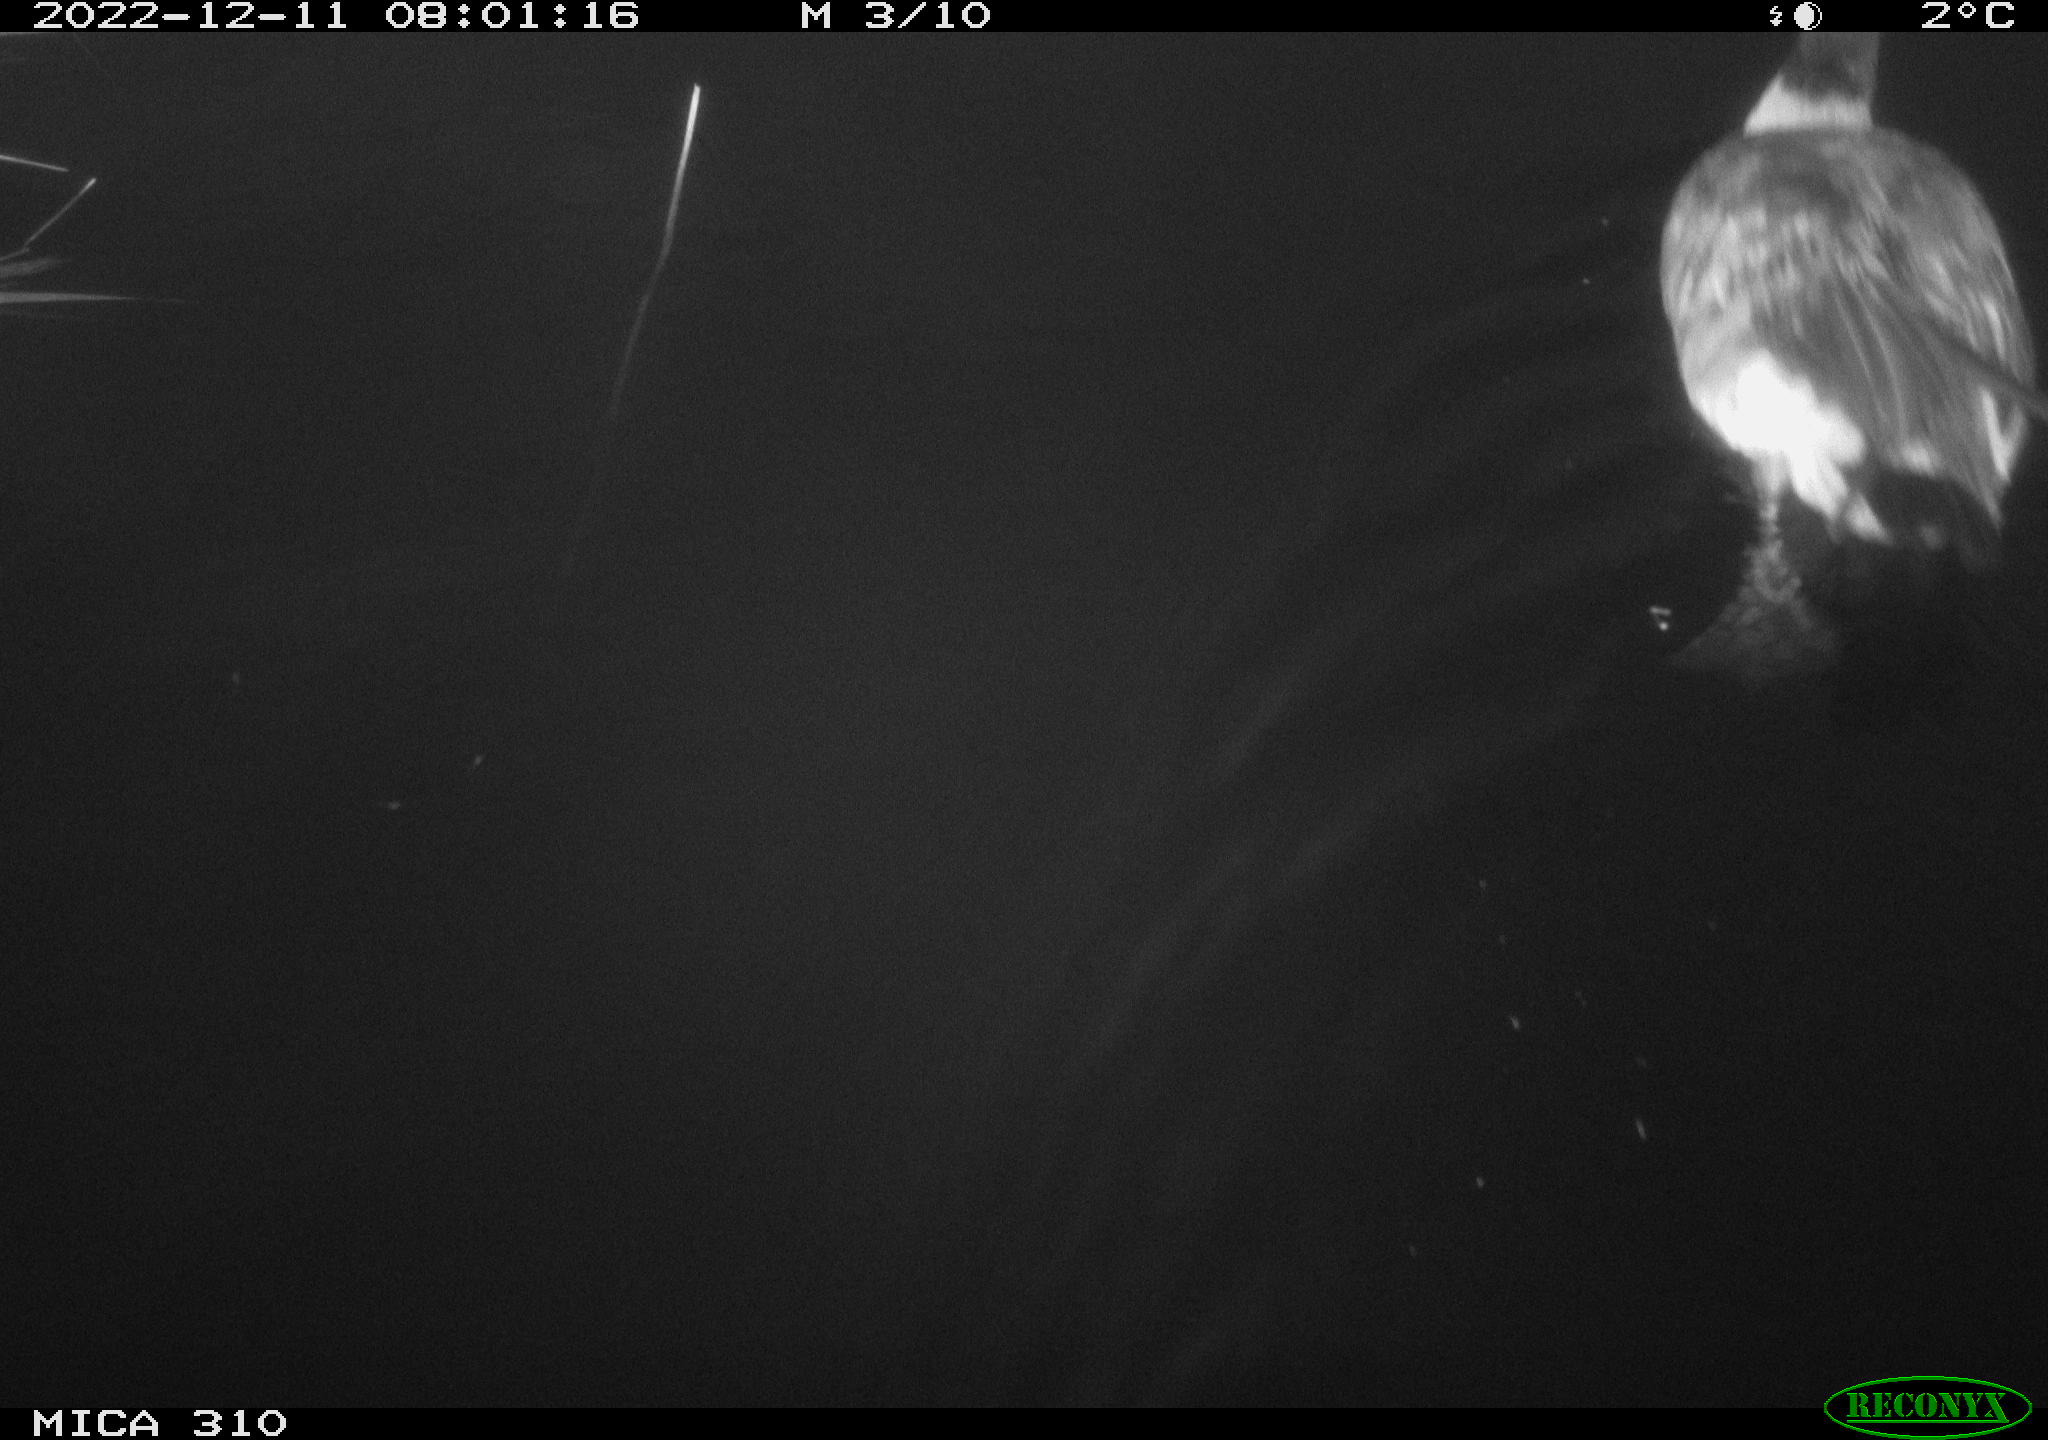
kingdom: Animalia
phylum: Chordata
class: Aves
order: Anseriformes
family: Anatidae
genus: Anas
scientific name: Anas
